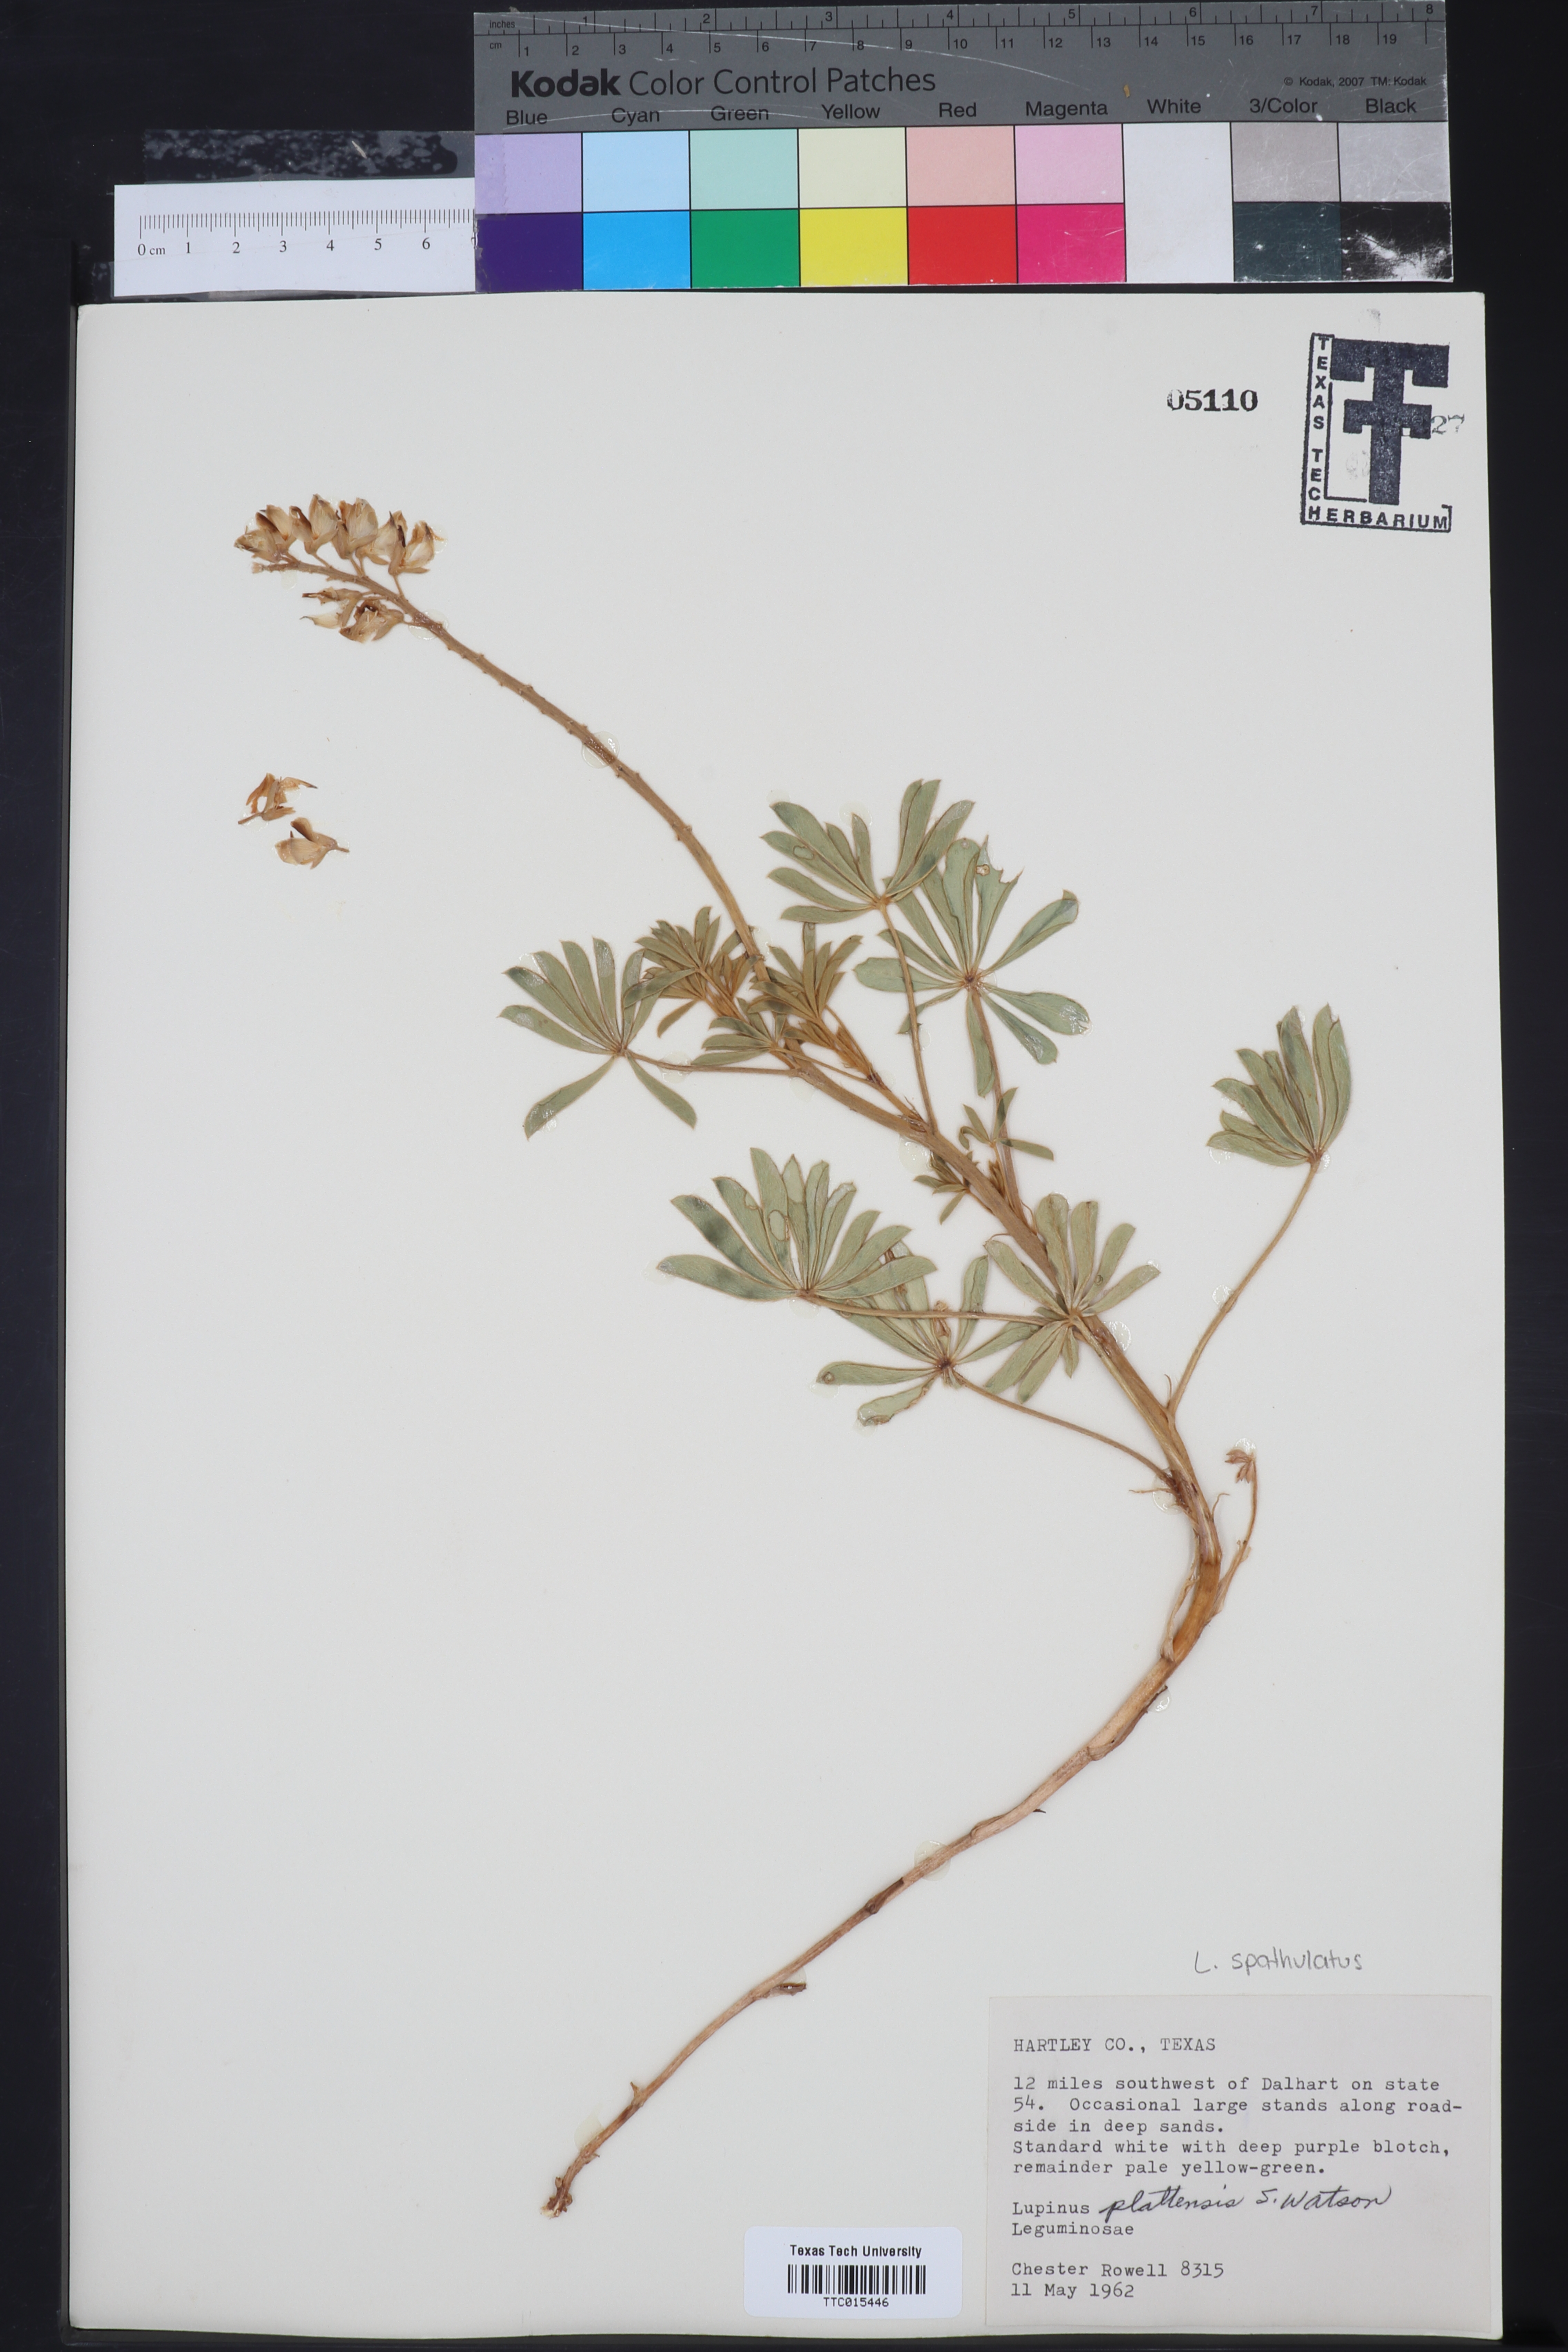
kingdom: Plantae
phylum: Tracheophyta
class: Magnoliopsida
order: Fabales
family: Fabaceae
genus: Lupinus
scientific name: Lupinus plattensis
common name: Platte lupine
